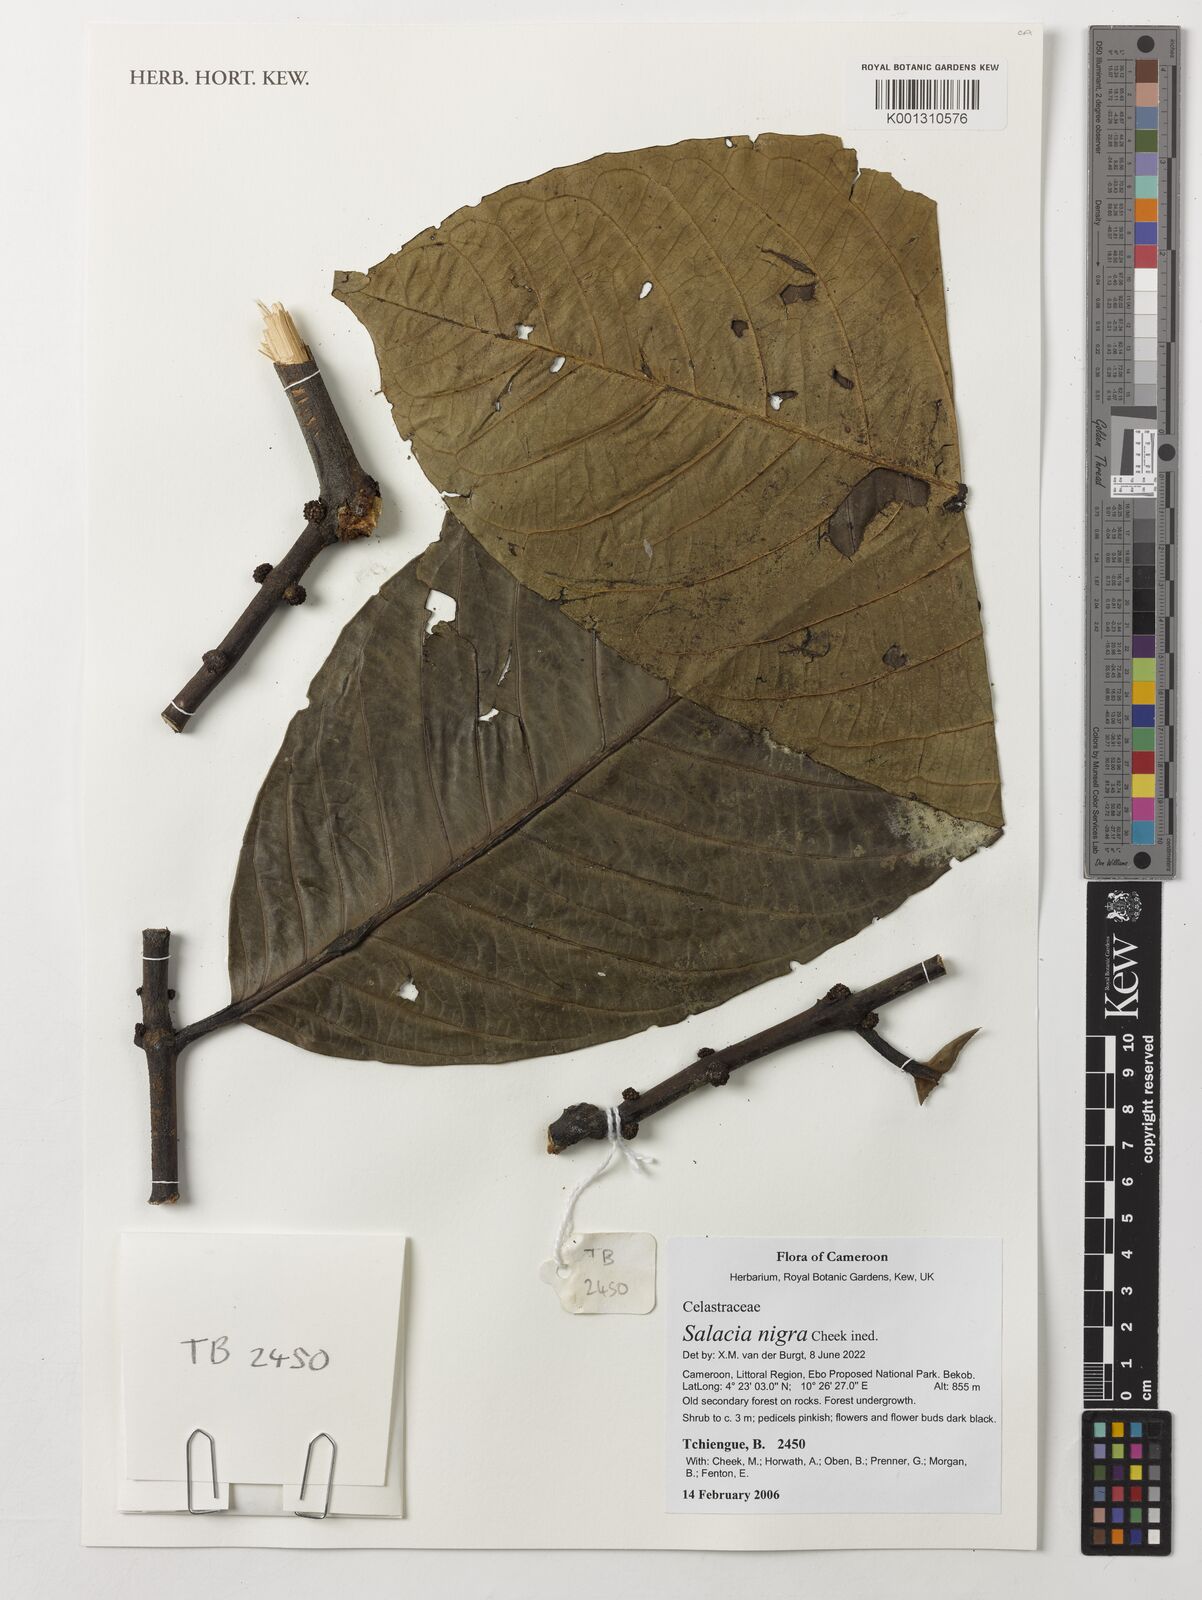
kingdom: Plantae
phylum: Tracheophyta
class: Magnoliopsida
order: Celastrales
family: Celastraceae
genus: Salacia
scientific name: Salacia nigra
